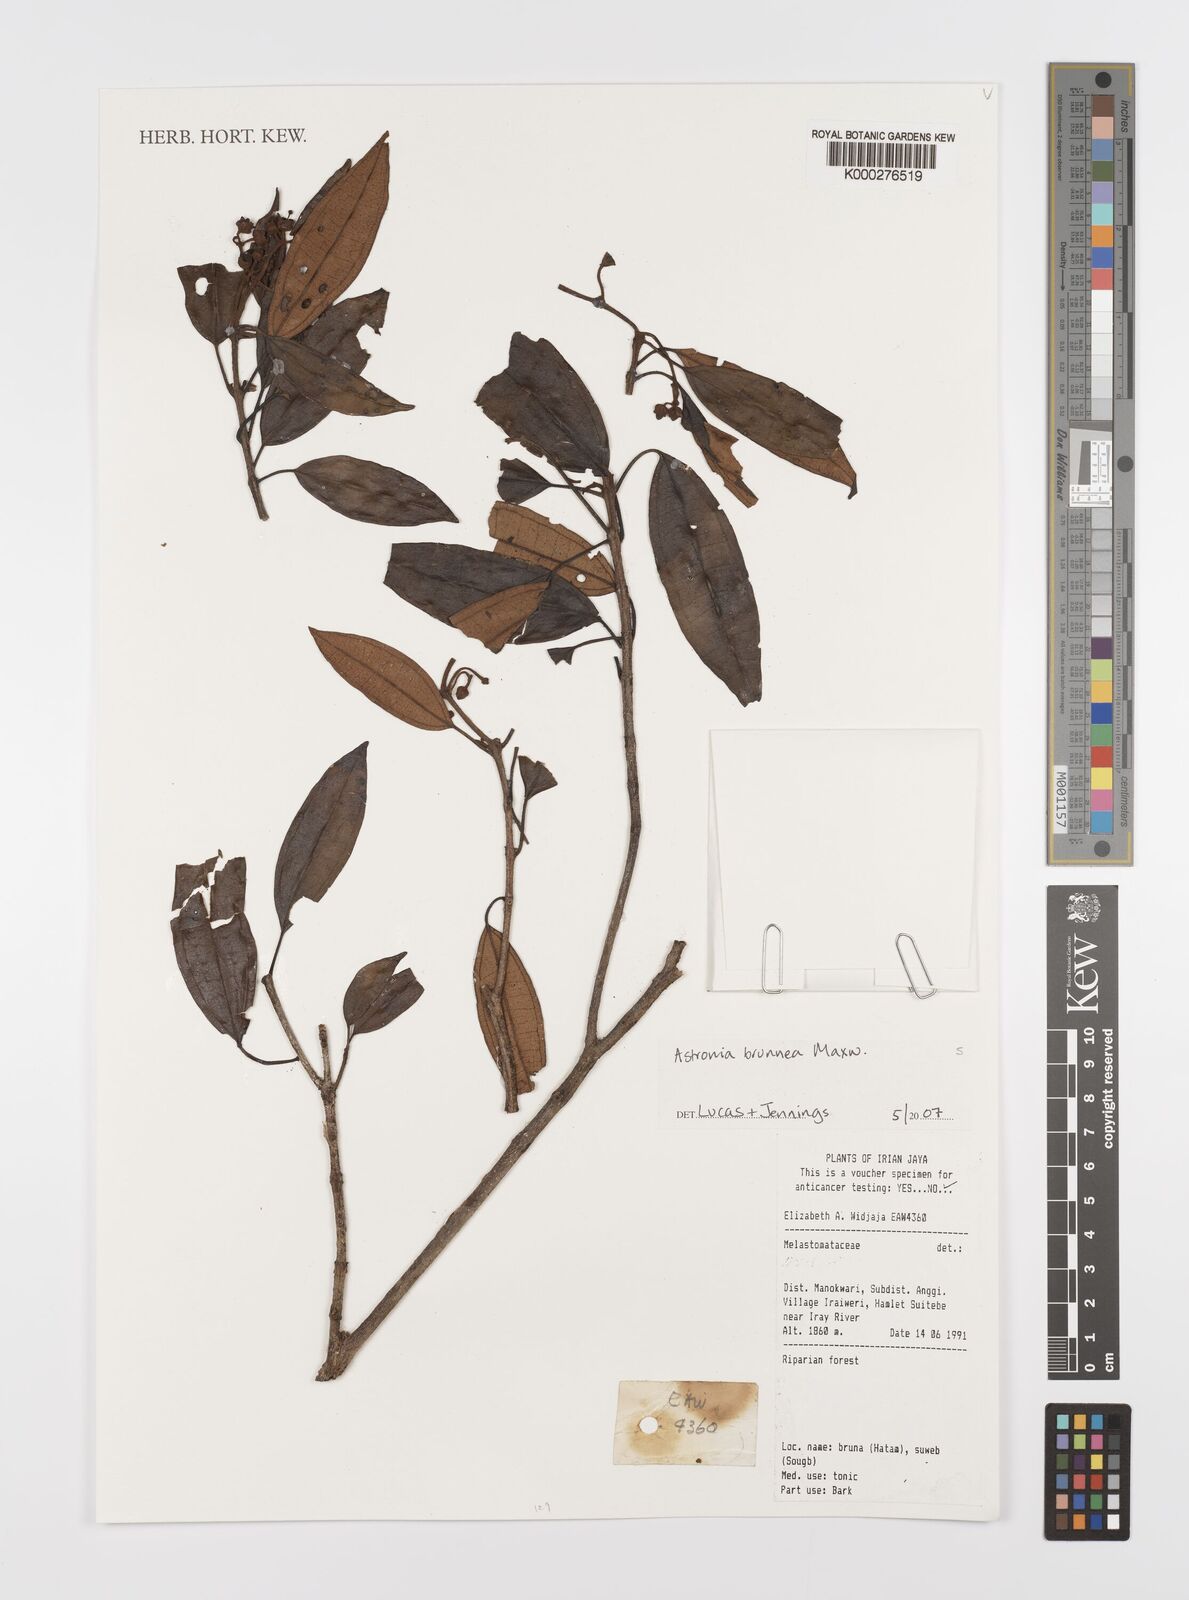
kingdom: Plantae
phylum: Tracheophyta
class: Magnoliopsida
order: Myrtales
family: Melastomataceae
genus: Astronia
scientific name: Astronia brunnea
